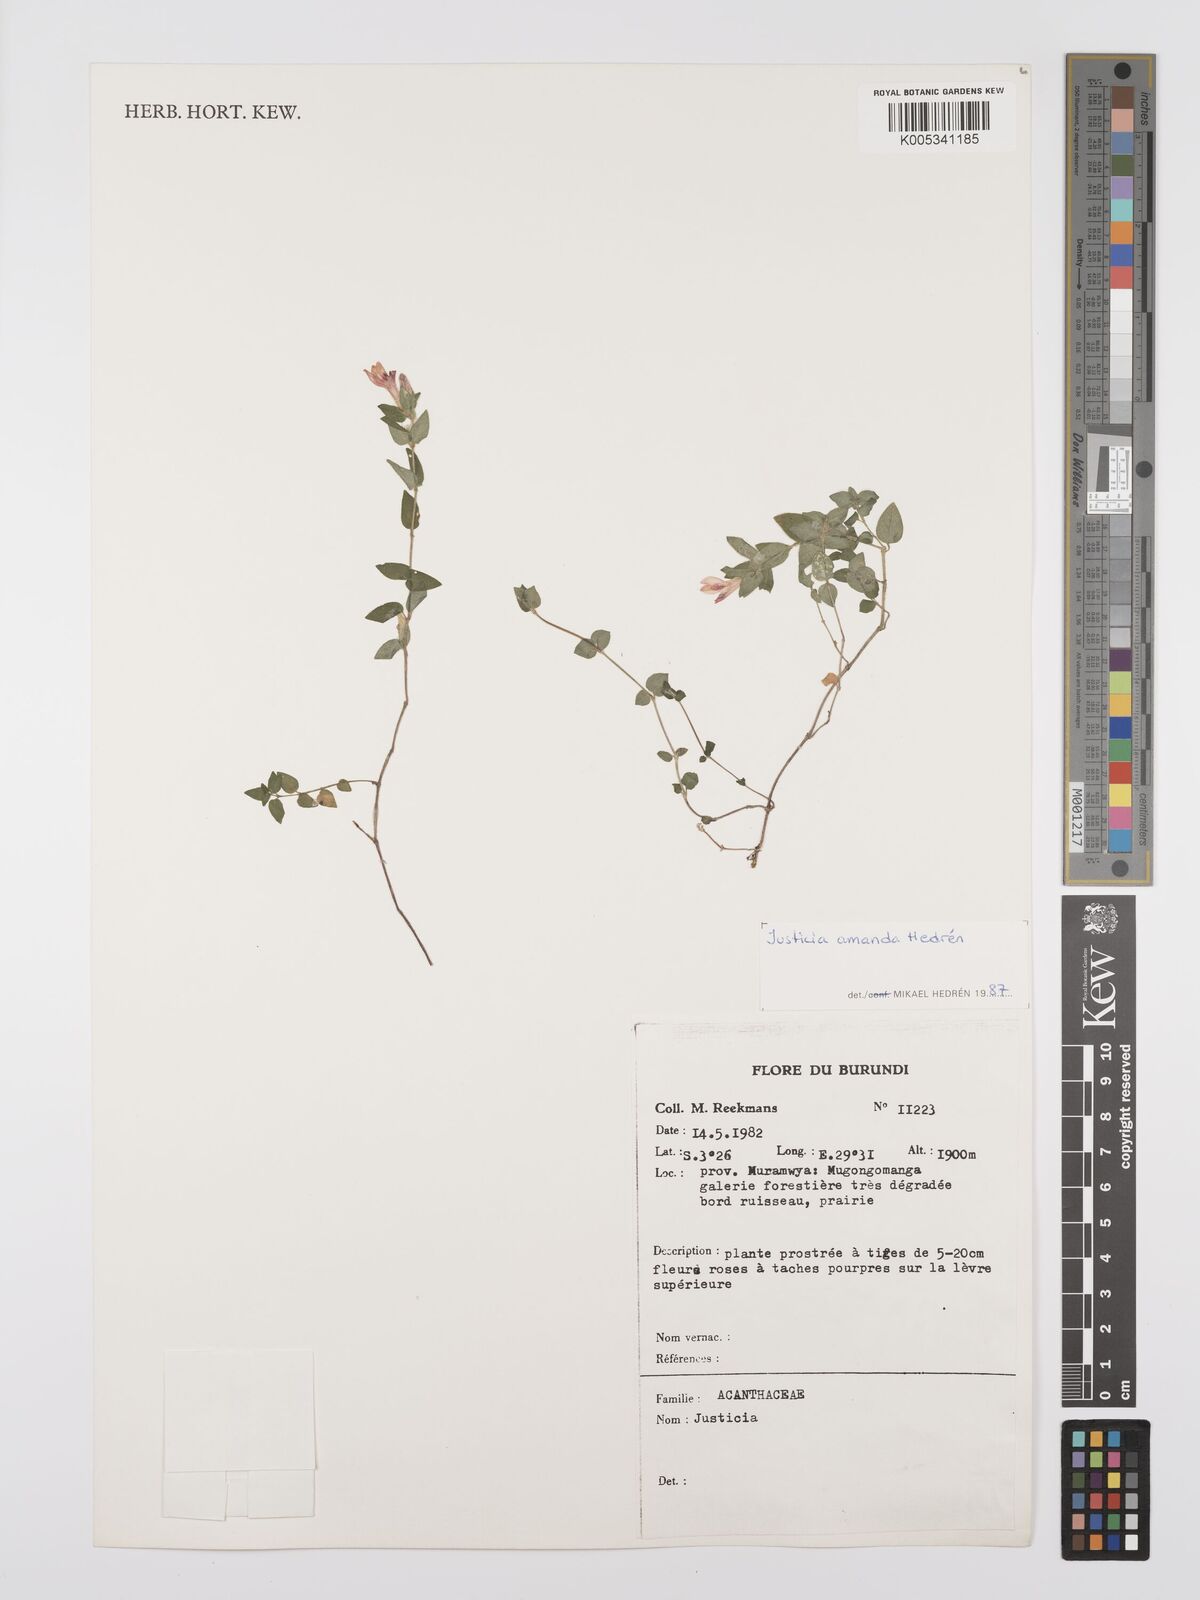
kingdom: Plantae
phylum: Tracheophyta
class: Magnoliopsida
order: Lamiales
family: Acanthaceae
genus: Justicia
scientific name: Justicia amanda
